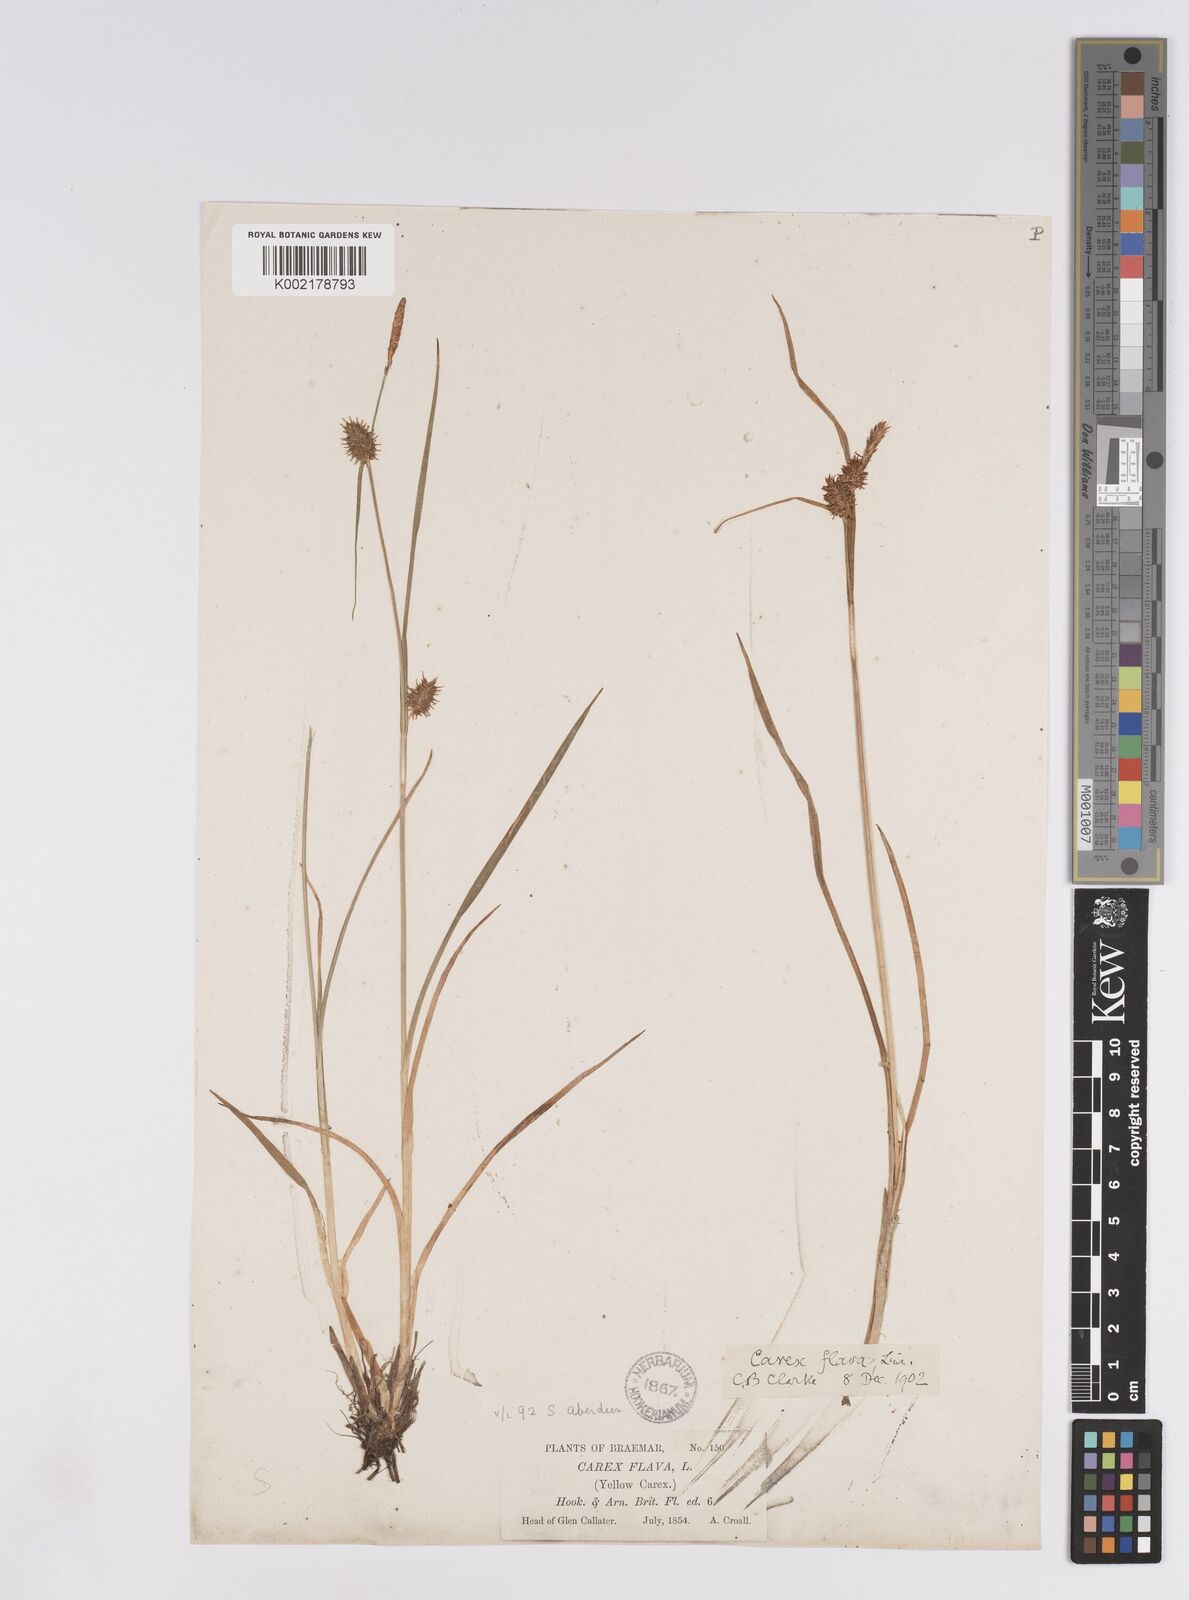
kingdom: Plantae
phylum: Tracheophyta
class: Liliopsida
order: Poales
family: Cyperaceae
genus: Carex
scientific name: Carex lepidocarpa
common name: Long-stalked yellow-sedge
